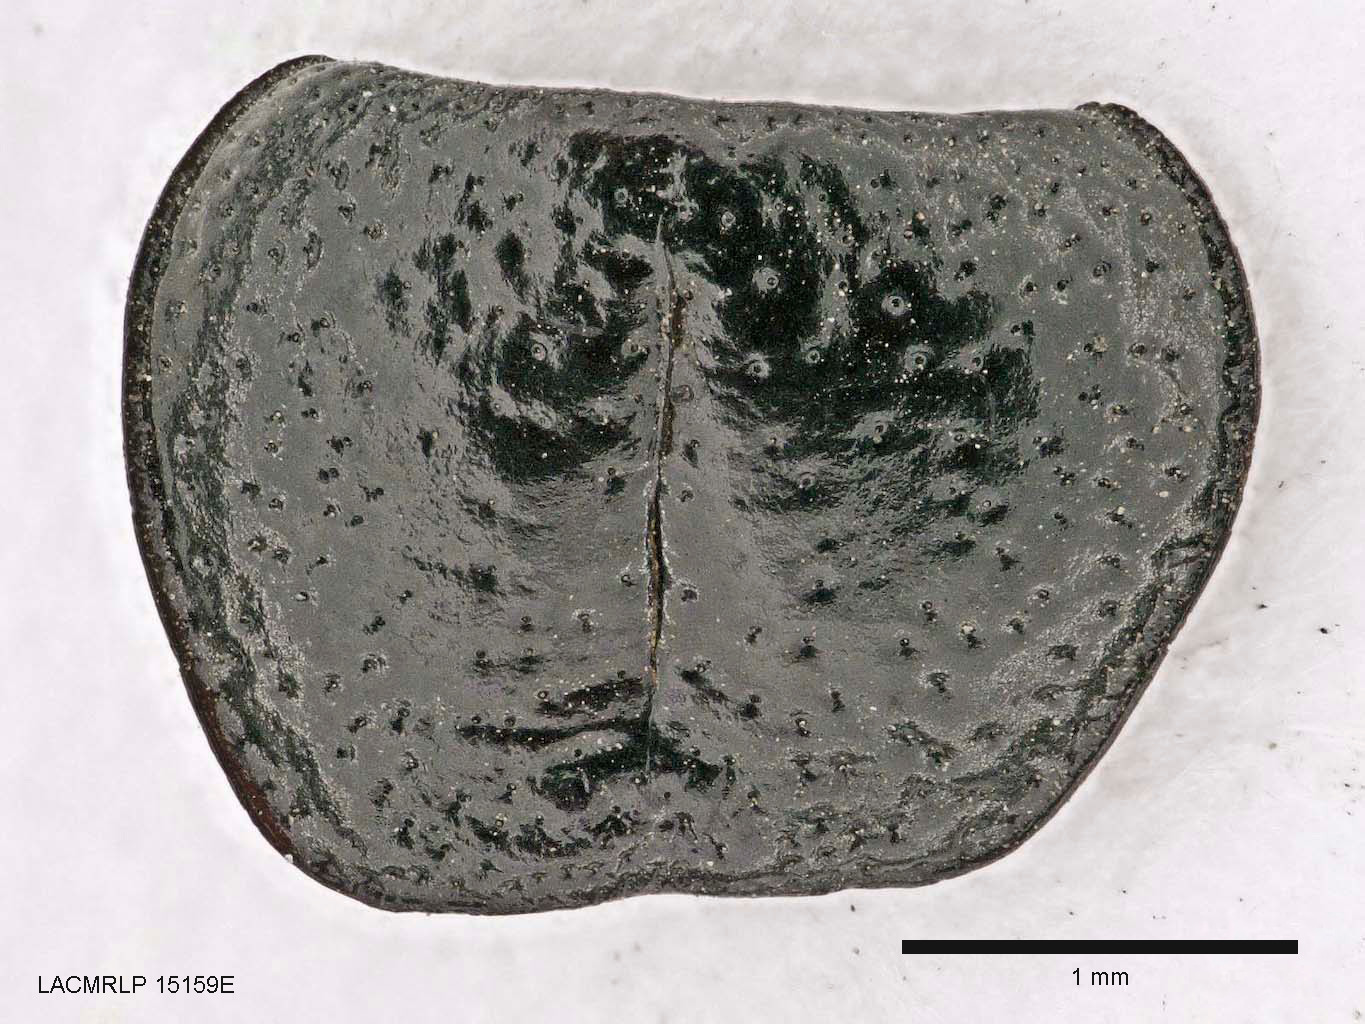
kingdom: Animalia
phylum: Arthropoda
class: Insecta
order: Coleoptera
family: Carabidae
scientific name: Carabidae
